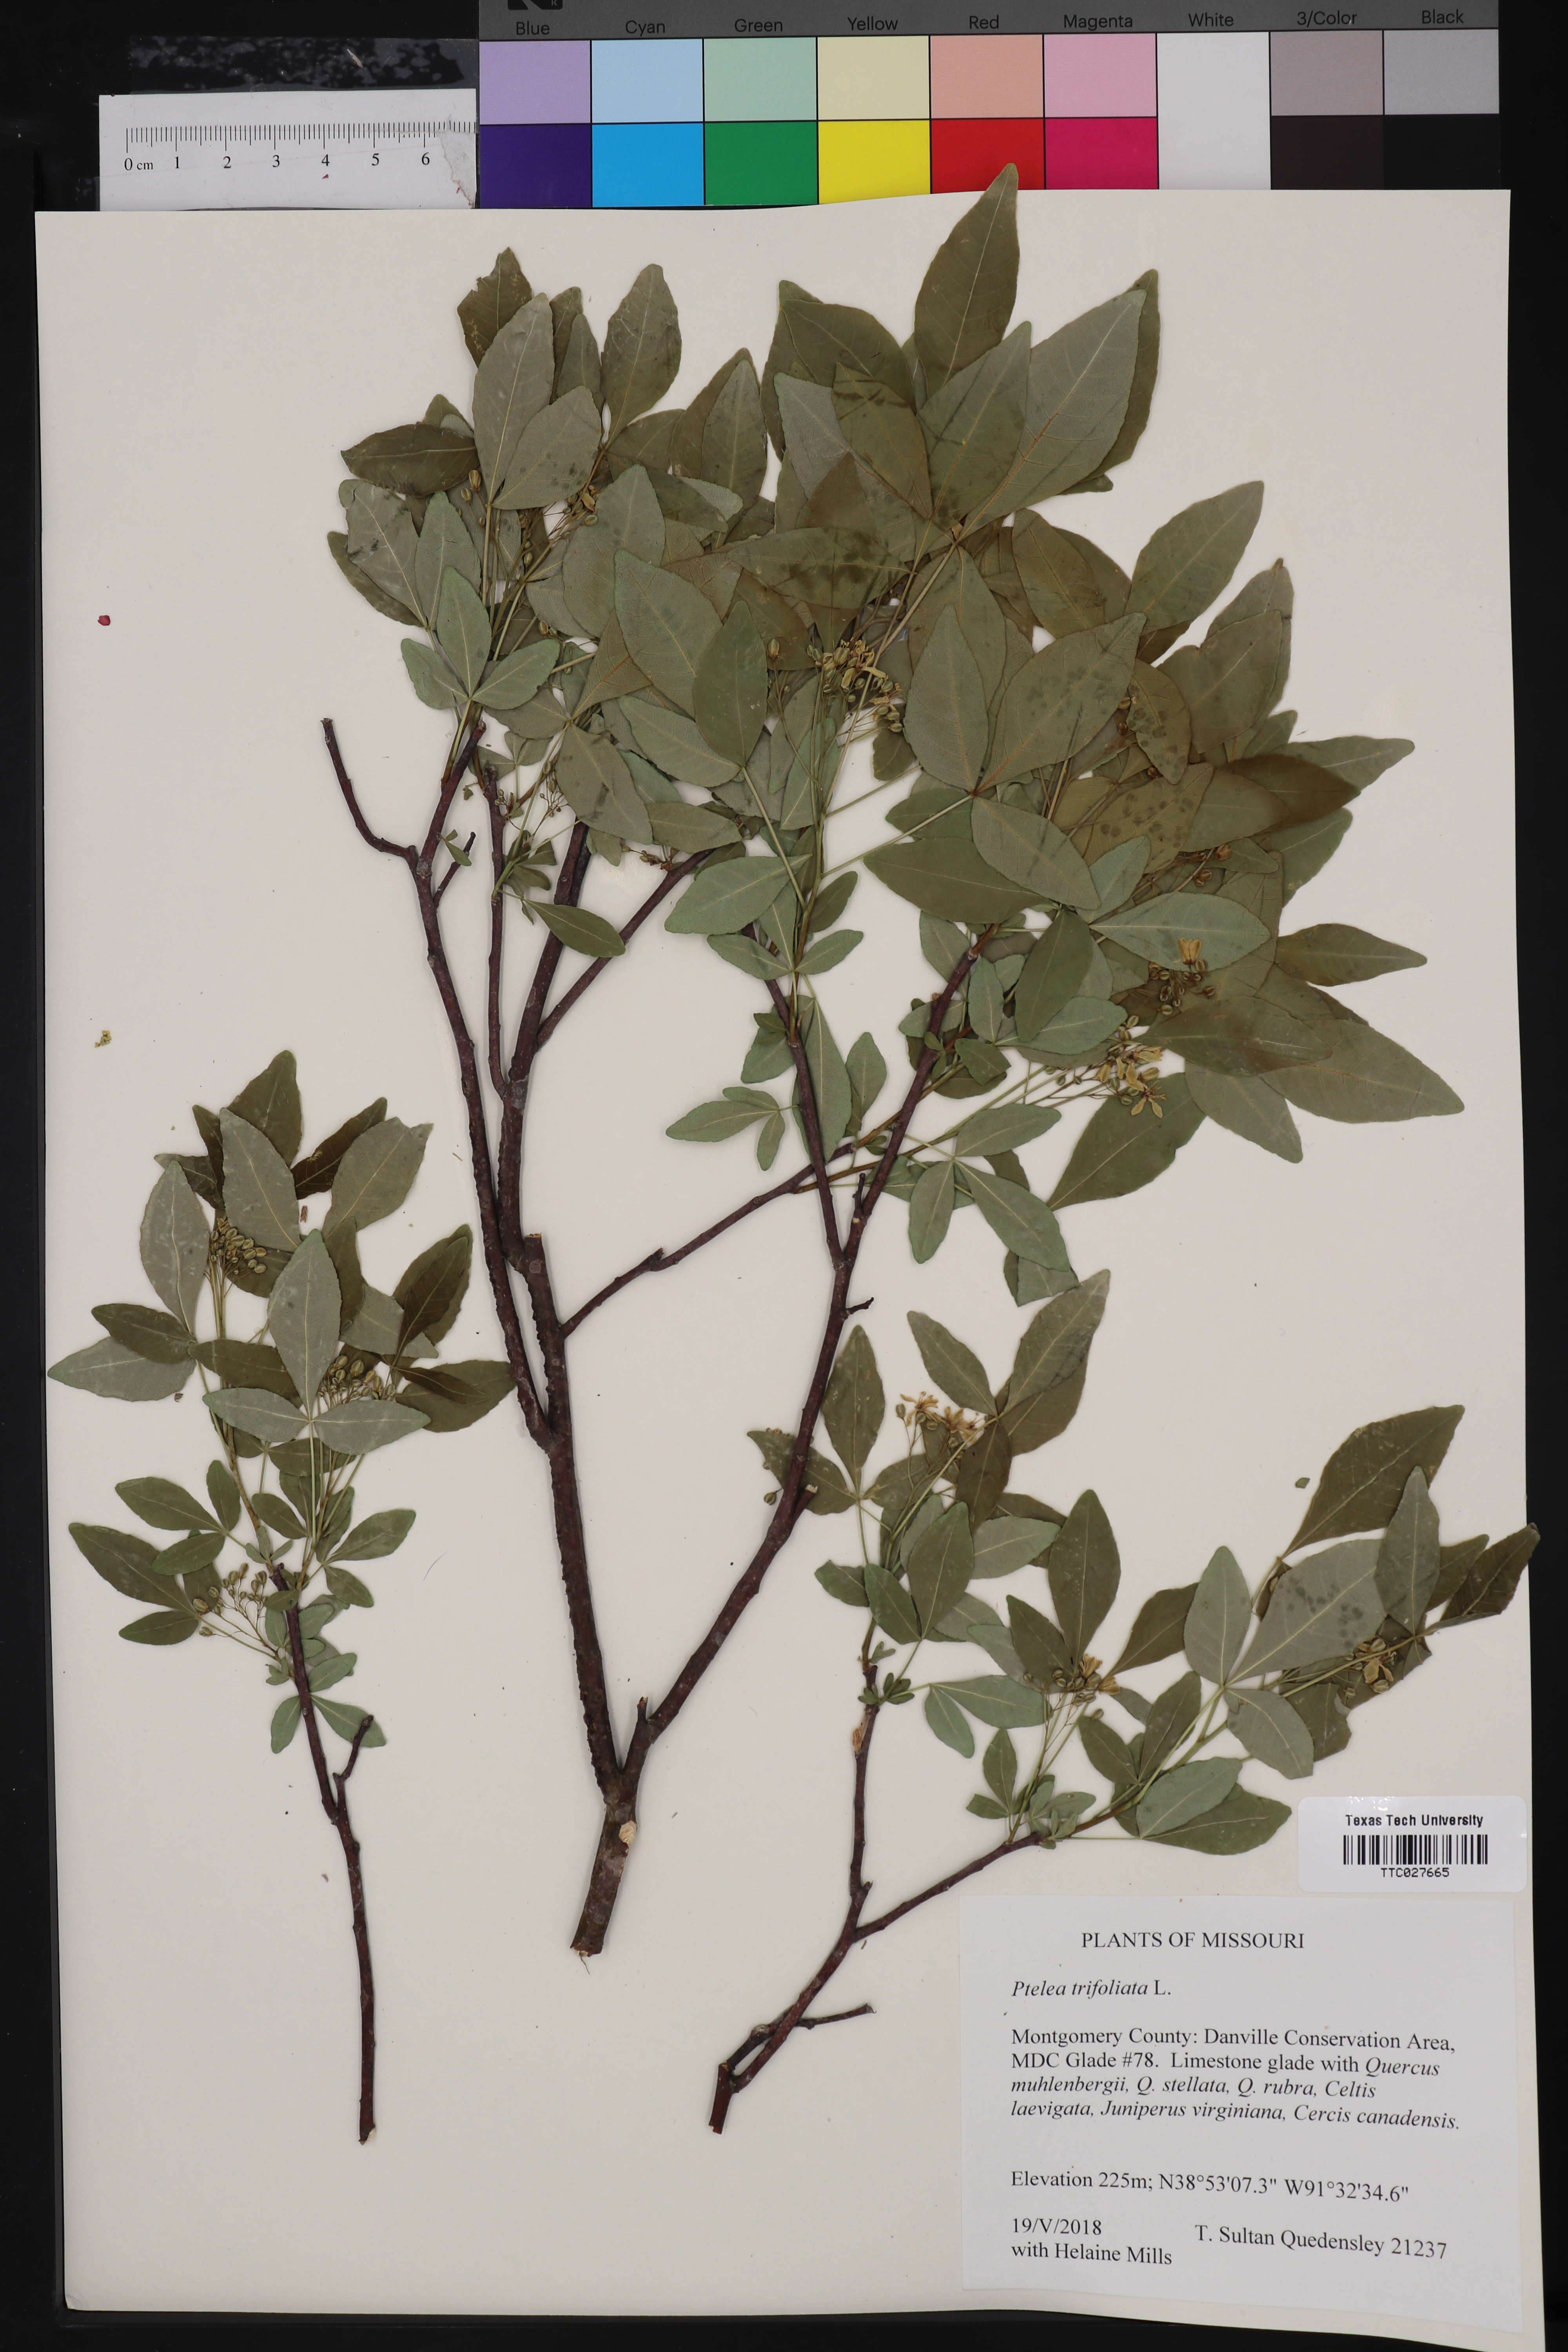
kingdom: Plantae
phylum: Tracheophyta
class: Magnoliopsida
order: Sapindales
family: Rutaceae
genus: Ptelea
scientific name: Ptelea trifoliata
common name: Common hop-tree
